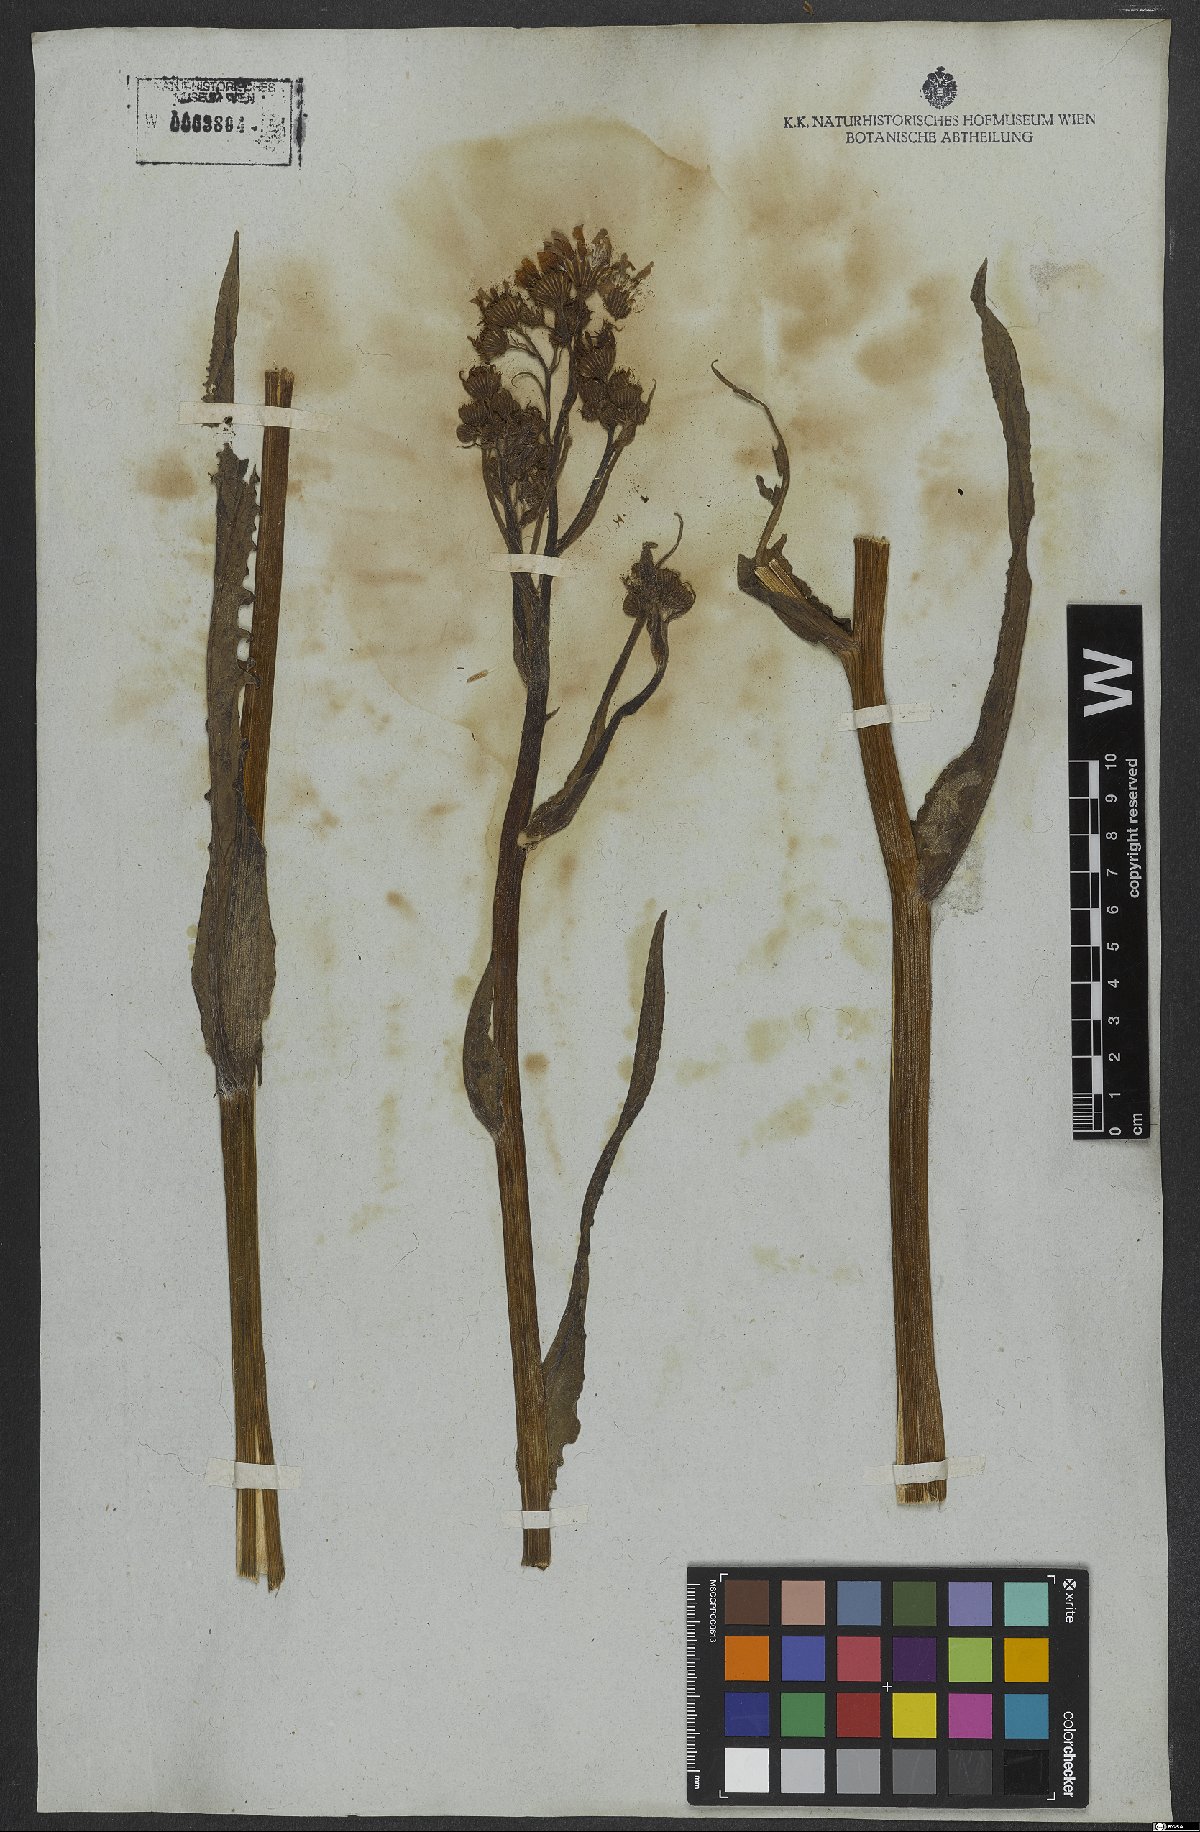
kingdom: Plantae
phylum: Tracheophyta
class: Magnoliopsida
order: Asterales
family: Asteraceae
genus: Senecio
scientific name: Senecio erisithalifolius
